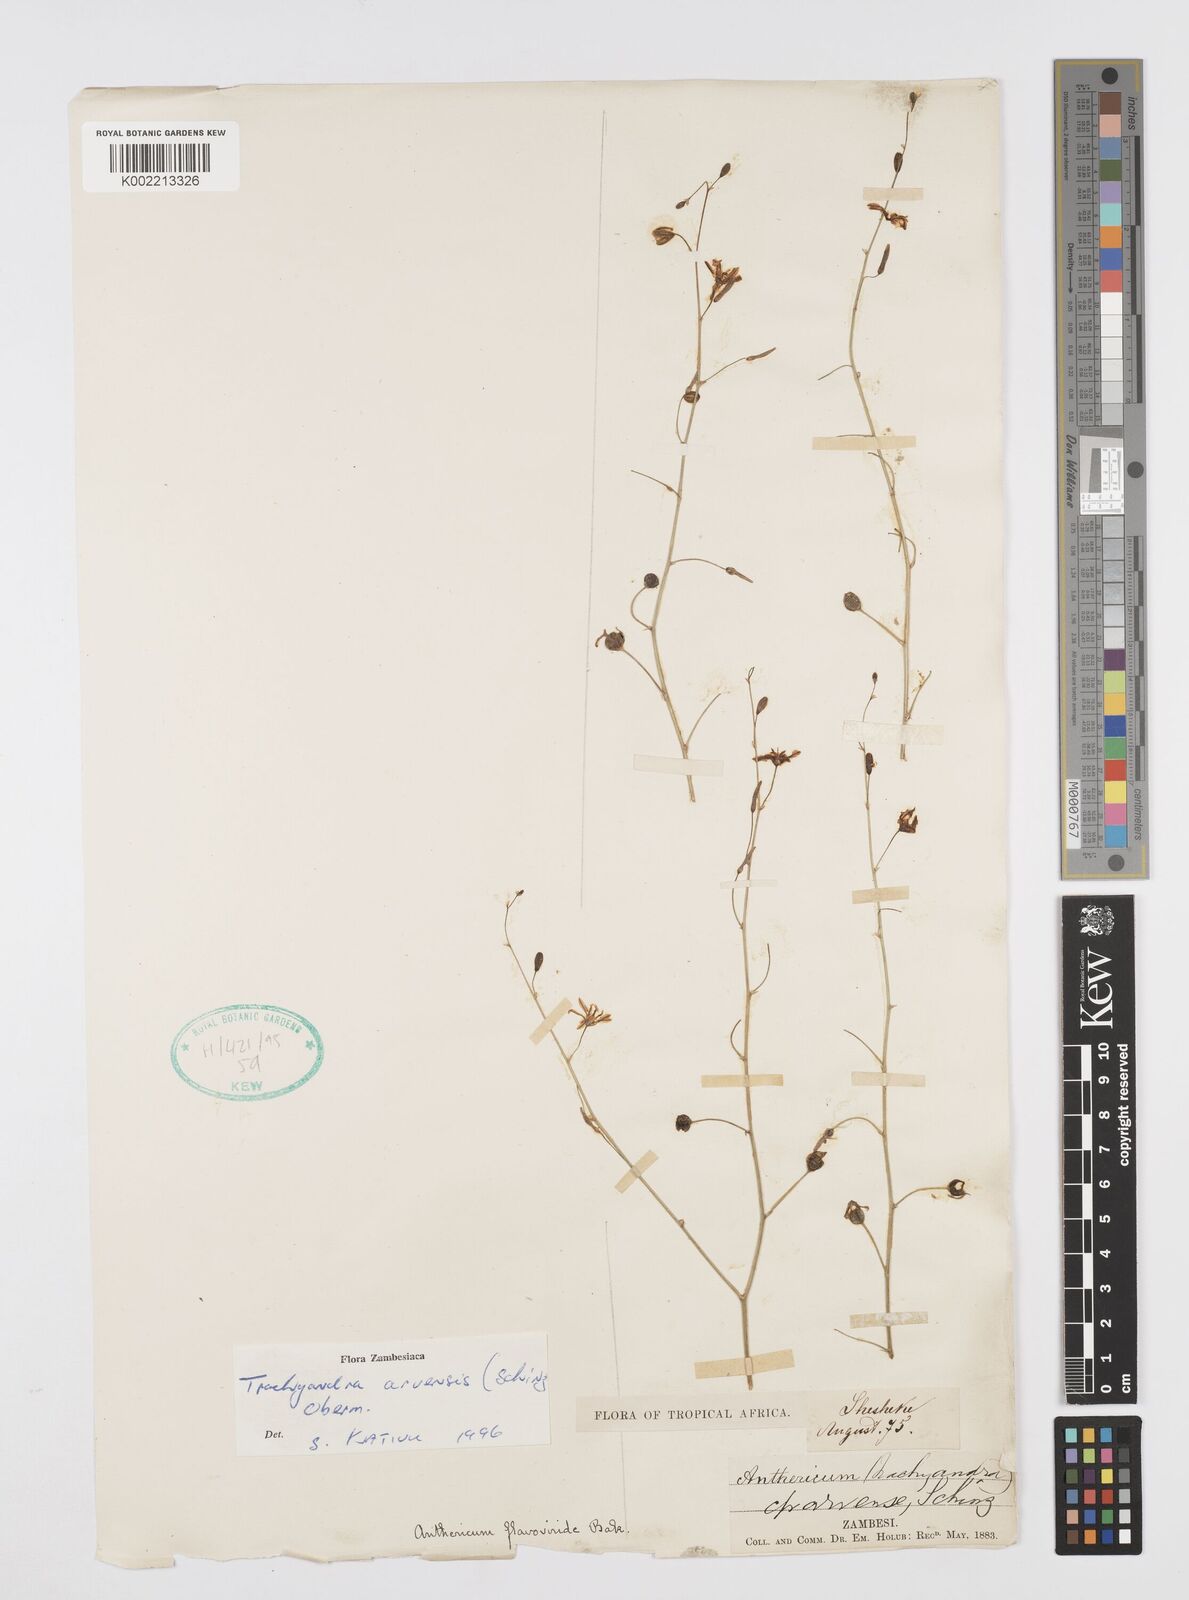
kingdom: Plantae
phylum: Tracheophyta
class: Liliopsida
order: Asparagales
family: Asphodelaceae
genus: Trachyandra
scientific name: Trachyandra arvensis
